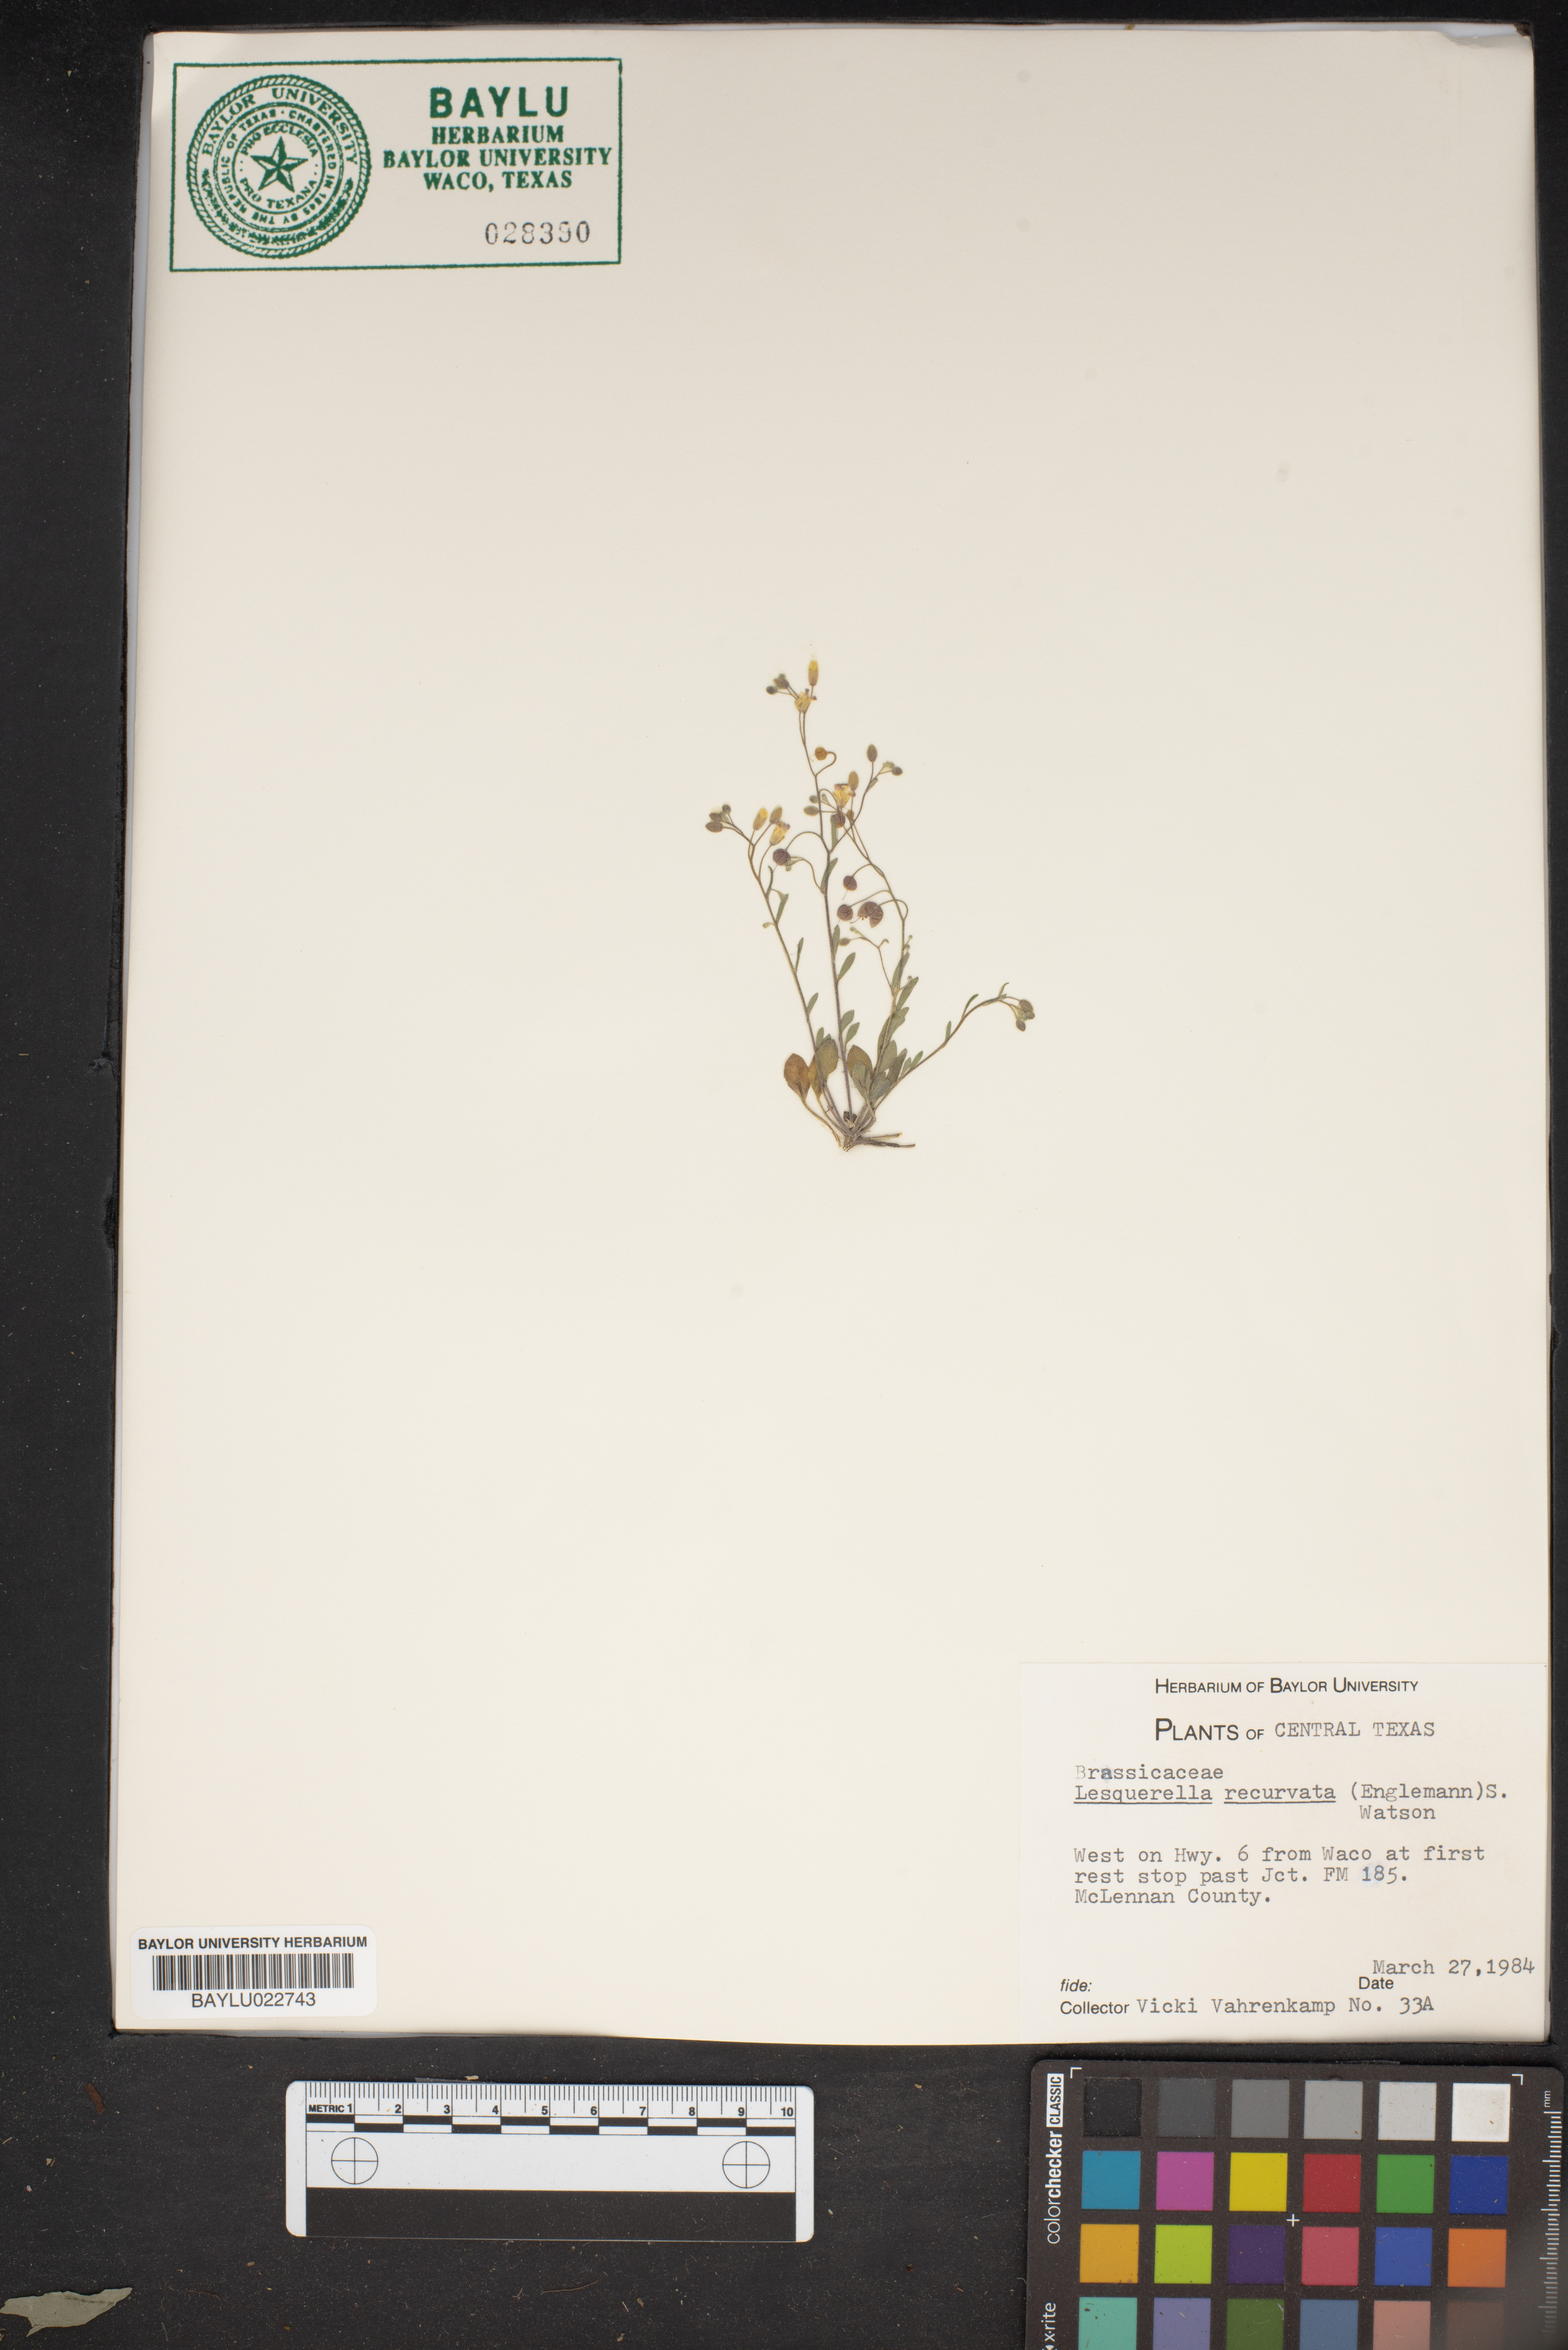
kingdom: Plantae
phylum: Tracheophyta
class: Magnoliopsida
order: Brassicales
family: Brassicaceae
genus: Physaria
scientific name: Physaria recurvata
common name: Gaslight bladderpod
